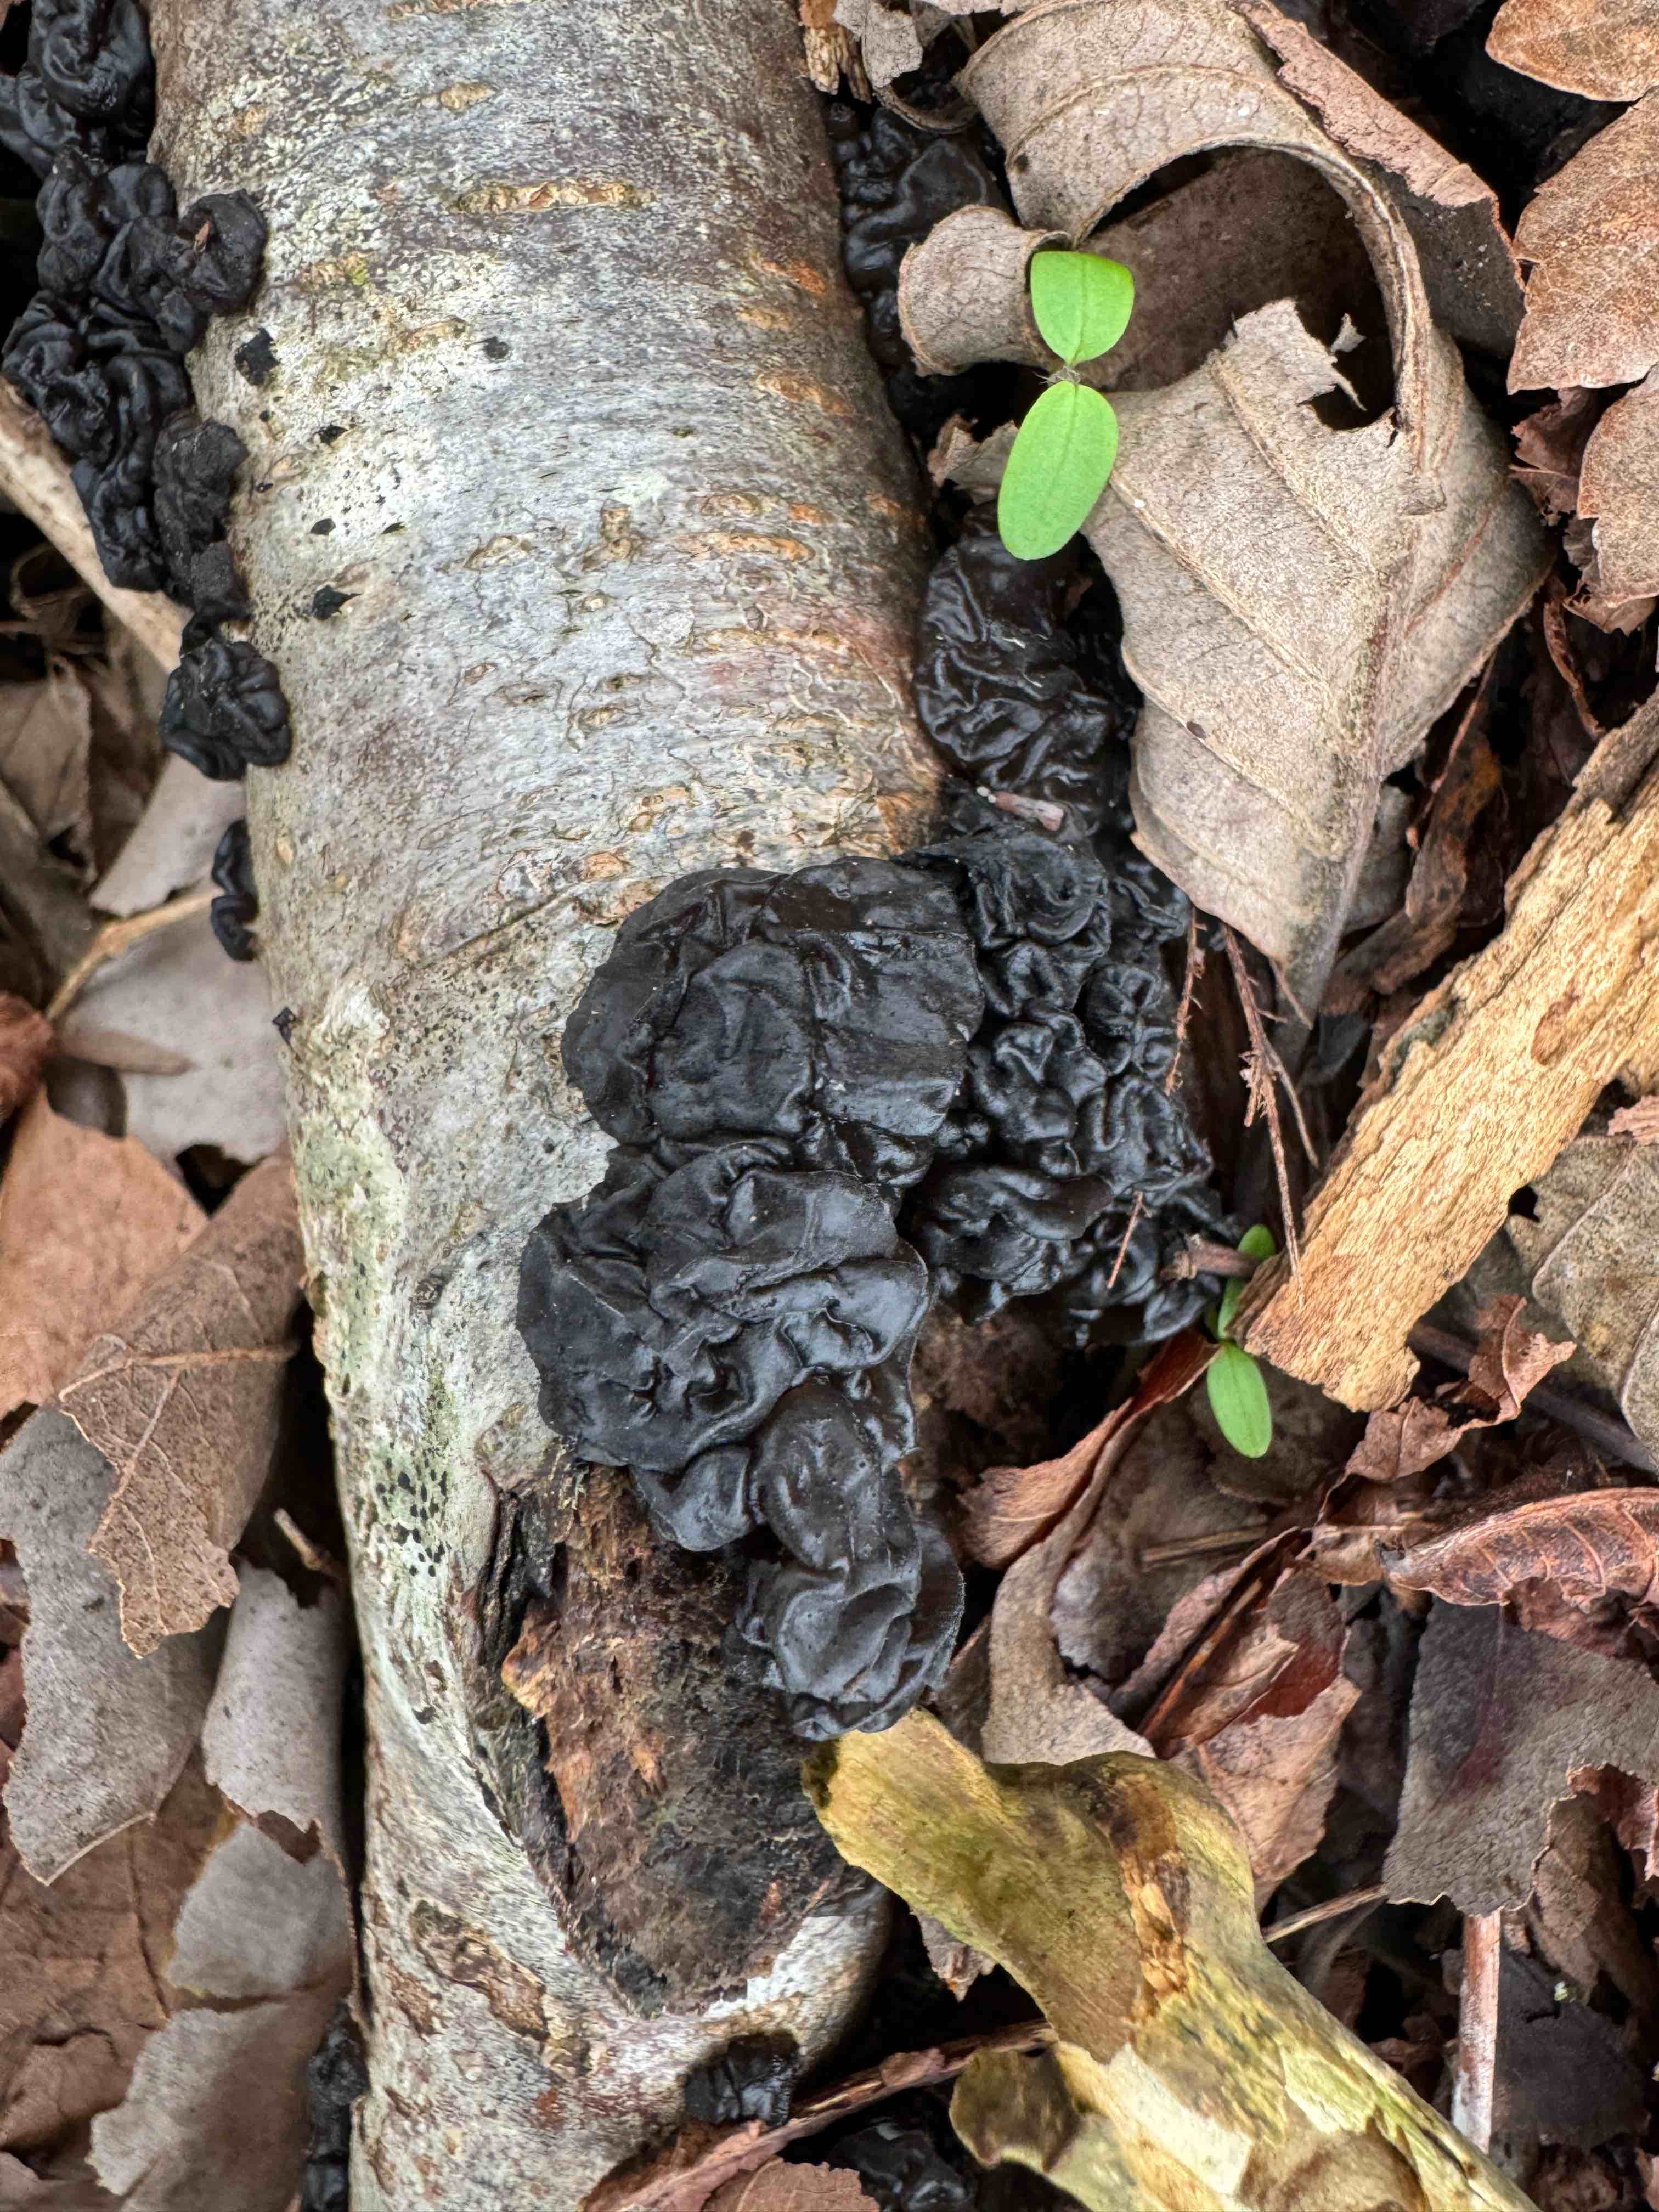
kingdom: Fungi
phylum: Basidiomycota
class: Agaricomycetes
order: Auriculariales
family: Auriculariaceae
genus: Exidia
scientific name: Exidia nigricans
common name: almindelig bævretop
